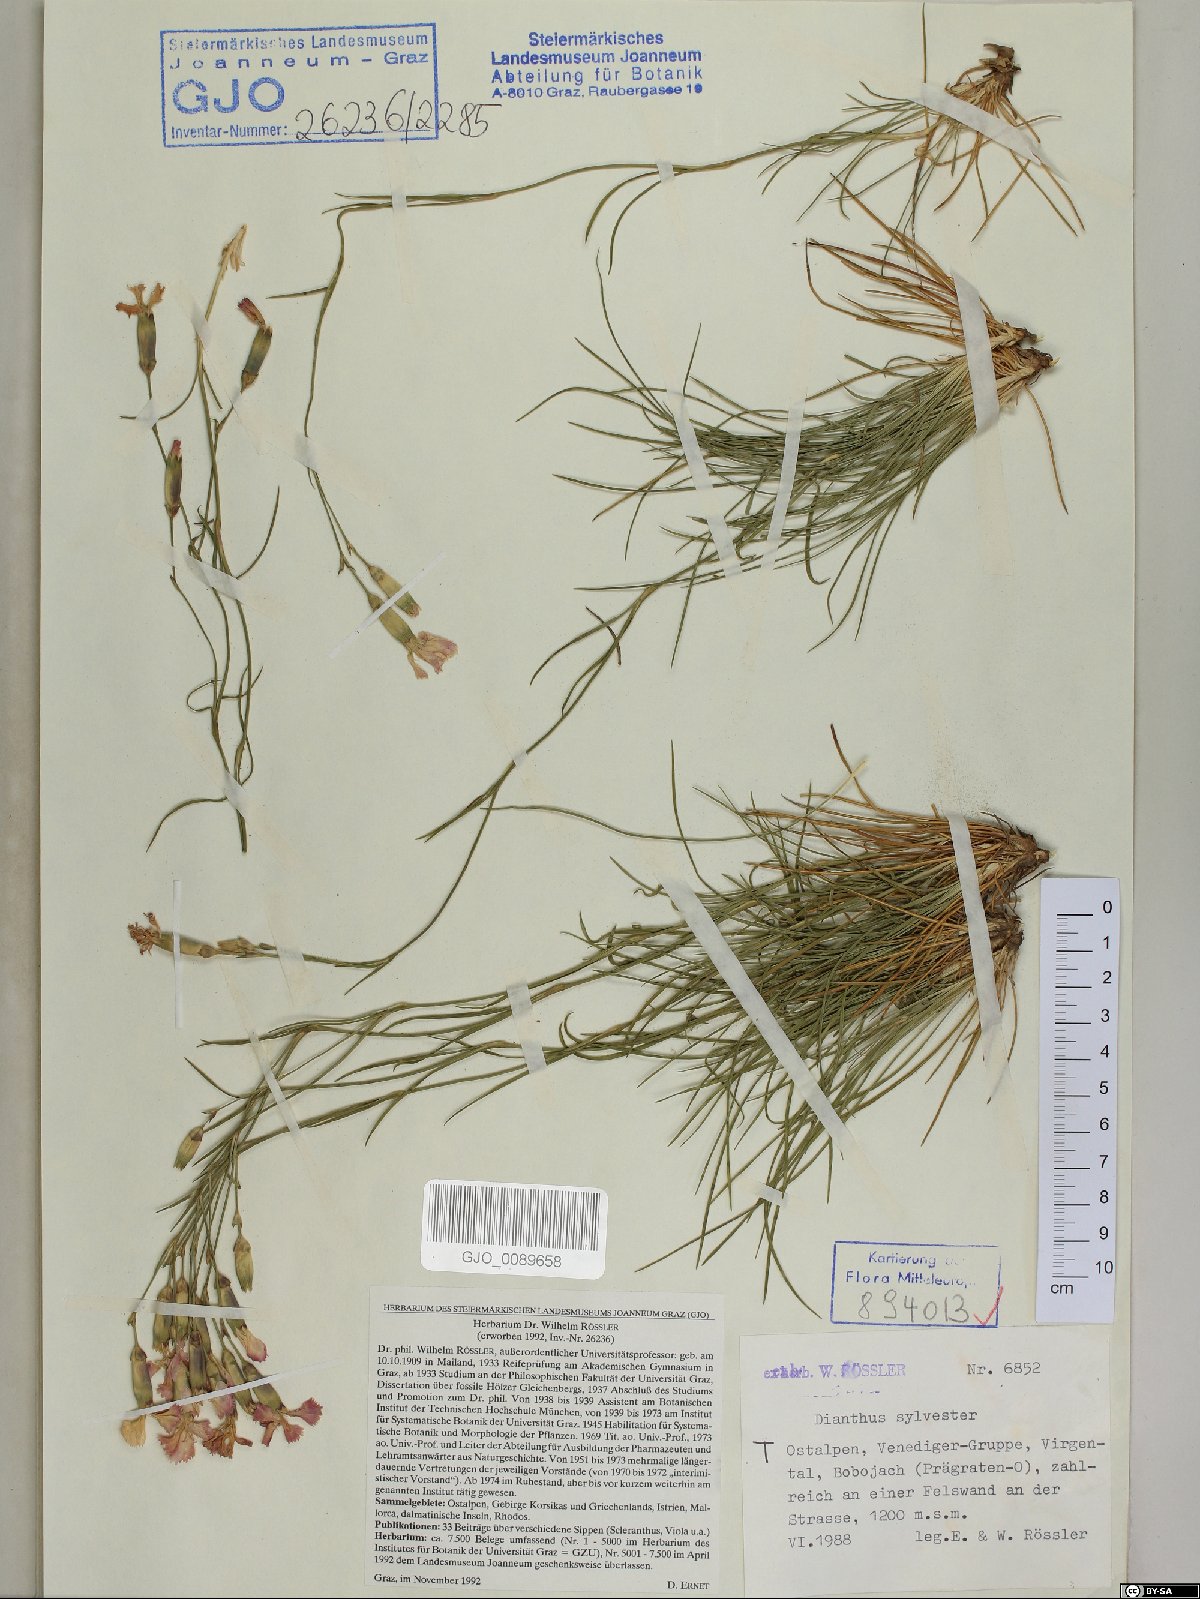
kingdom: Plantae
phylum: Tracheophyta
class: Magnoliopsida
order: Caryophyllales
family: Caryophyllaceae
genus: Dianthus
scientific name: Dianthus sylvestris
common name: Wood pink
